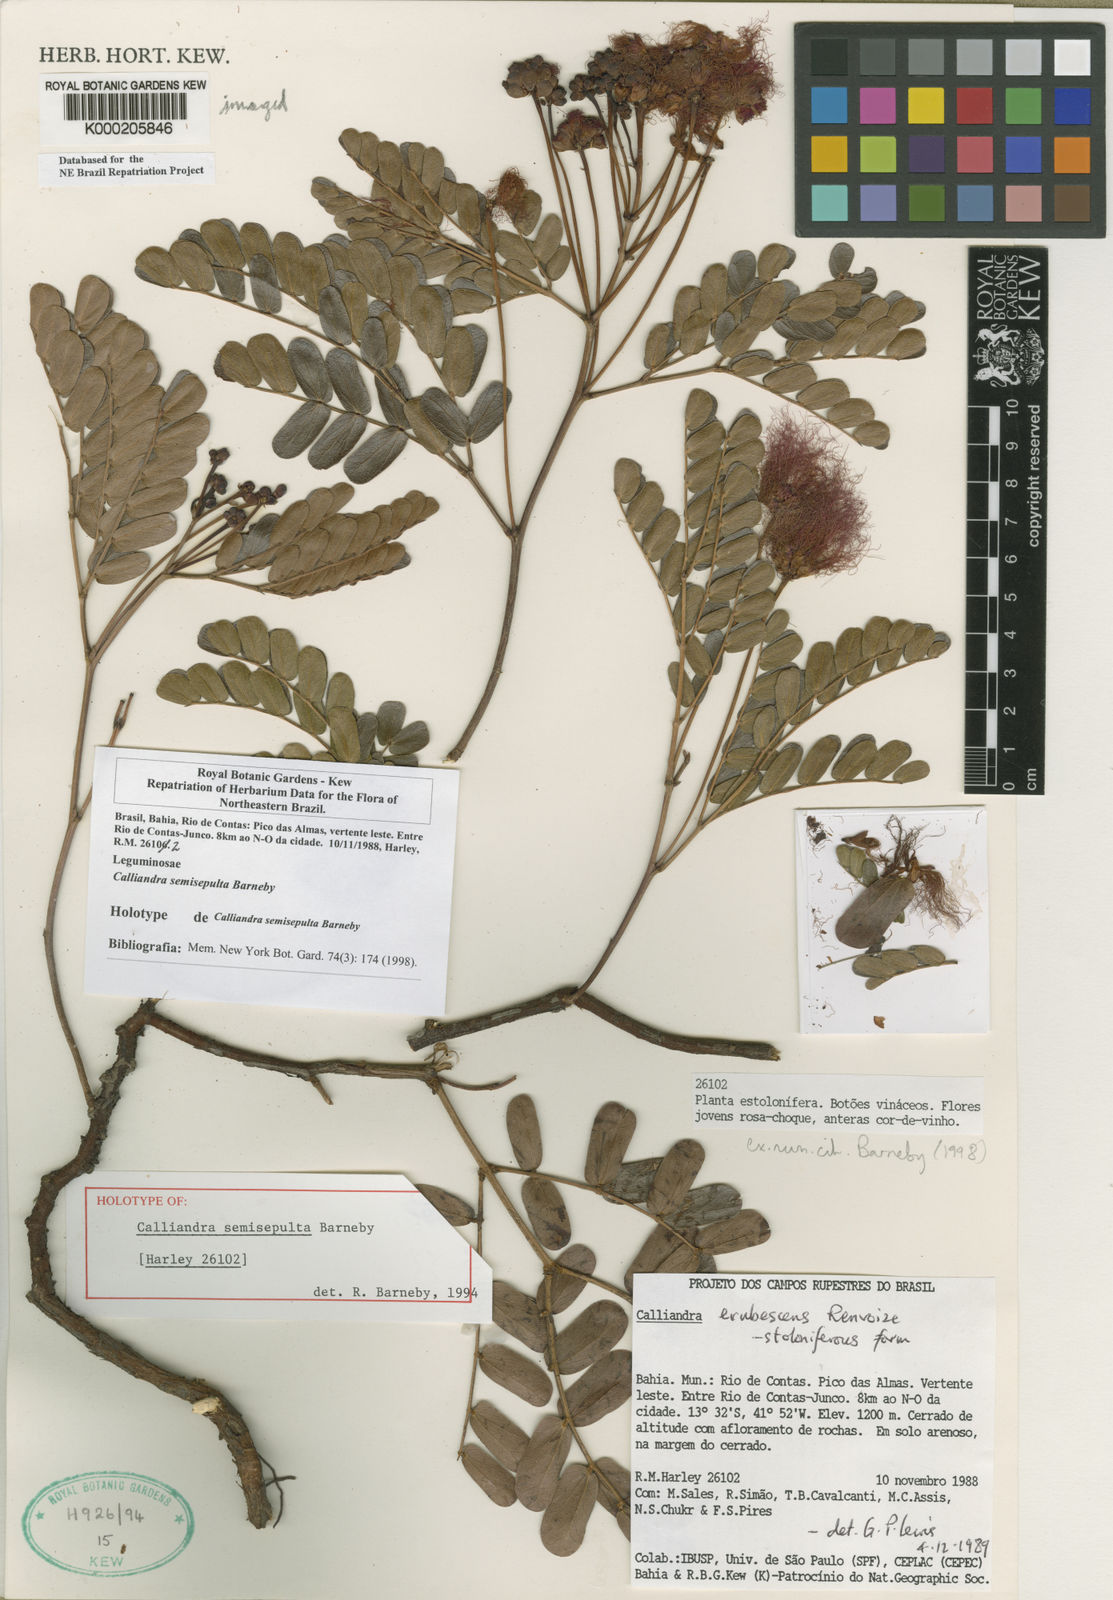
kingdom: Plantae
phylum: Tracheophyta
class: Magnoliopsida
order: Fabales
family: Fabaceae
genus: Calliandra
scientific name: Calliandra semisepulta
